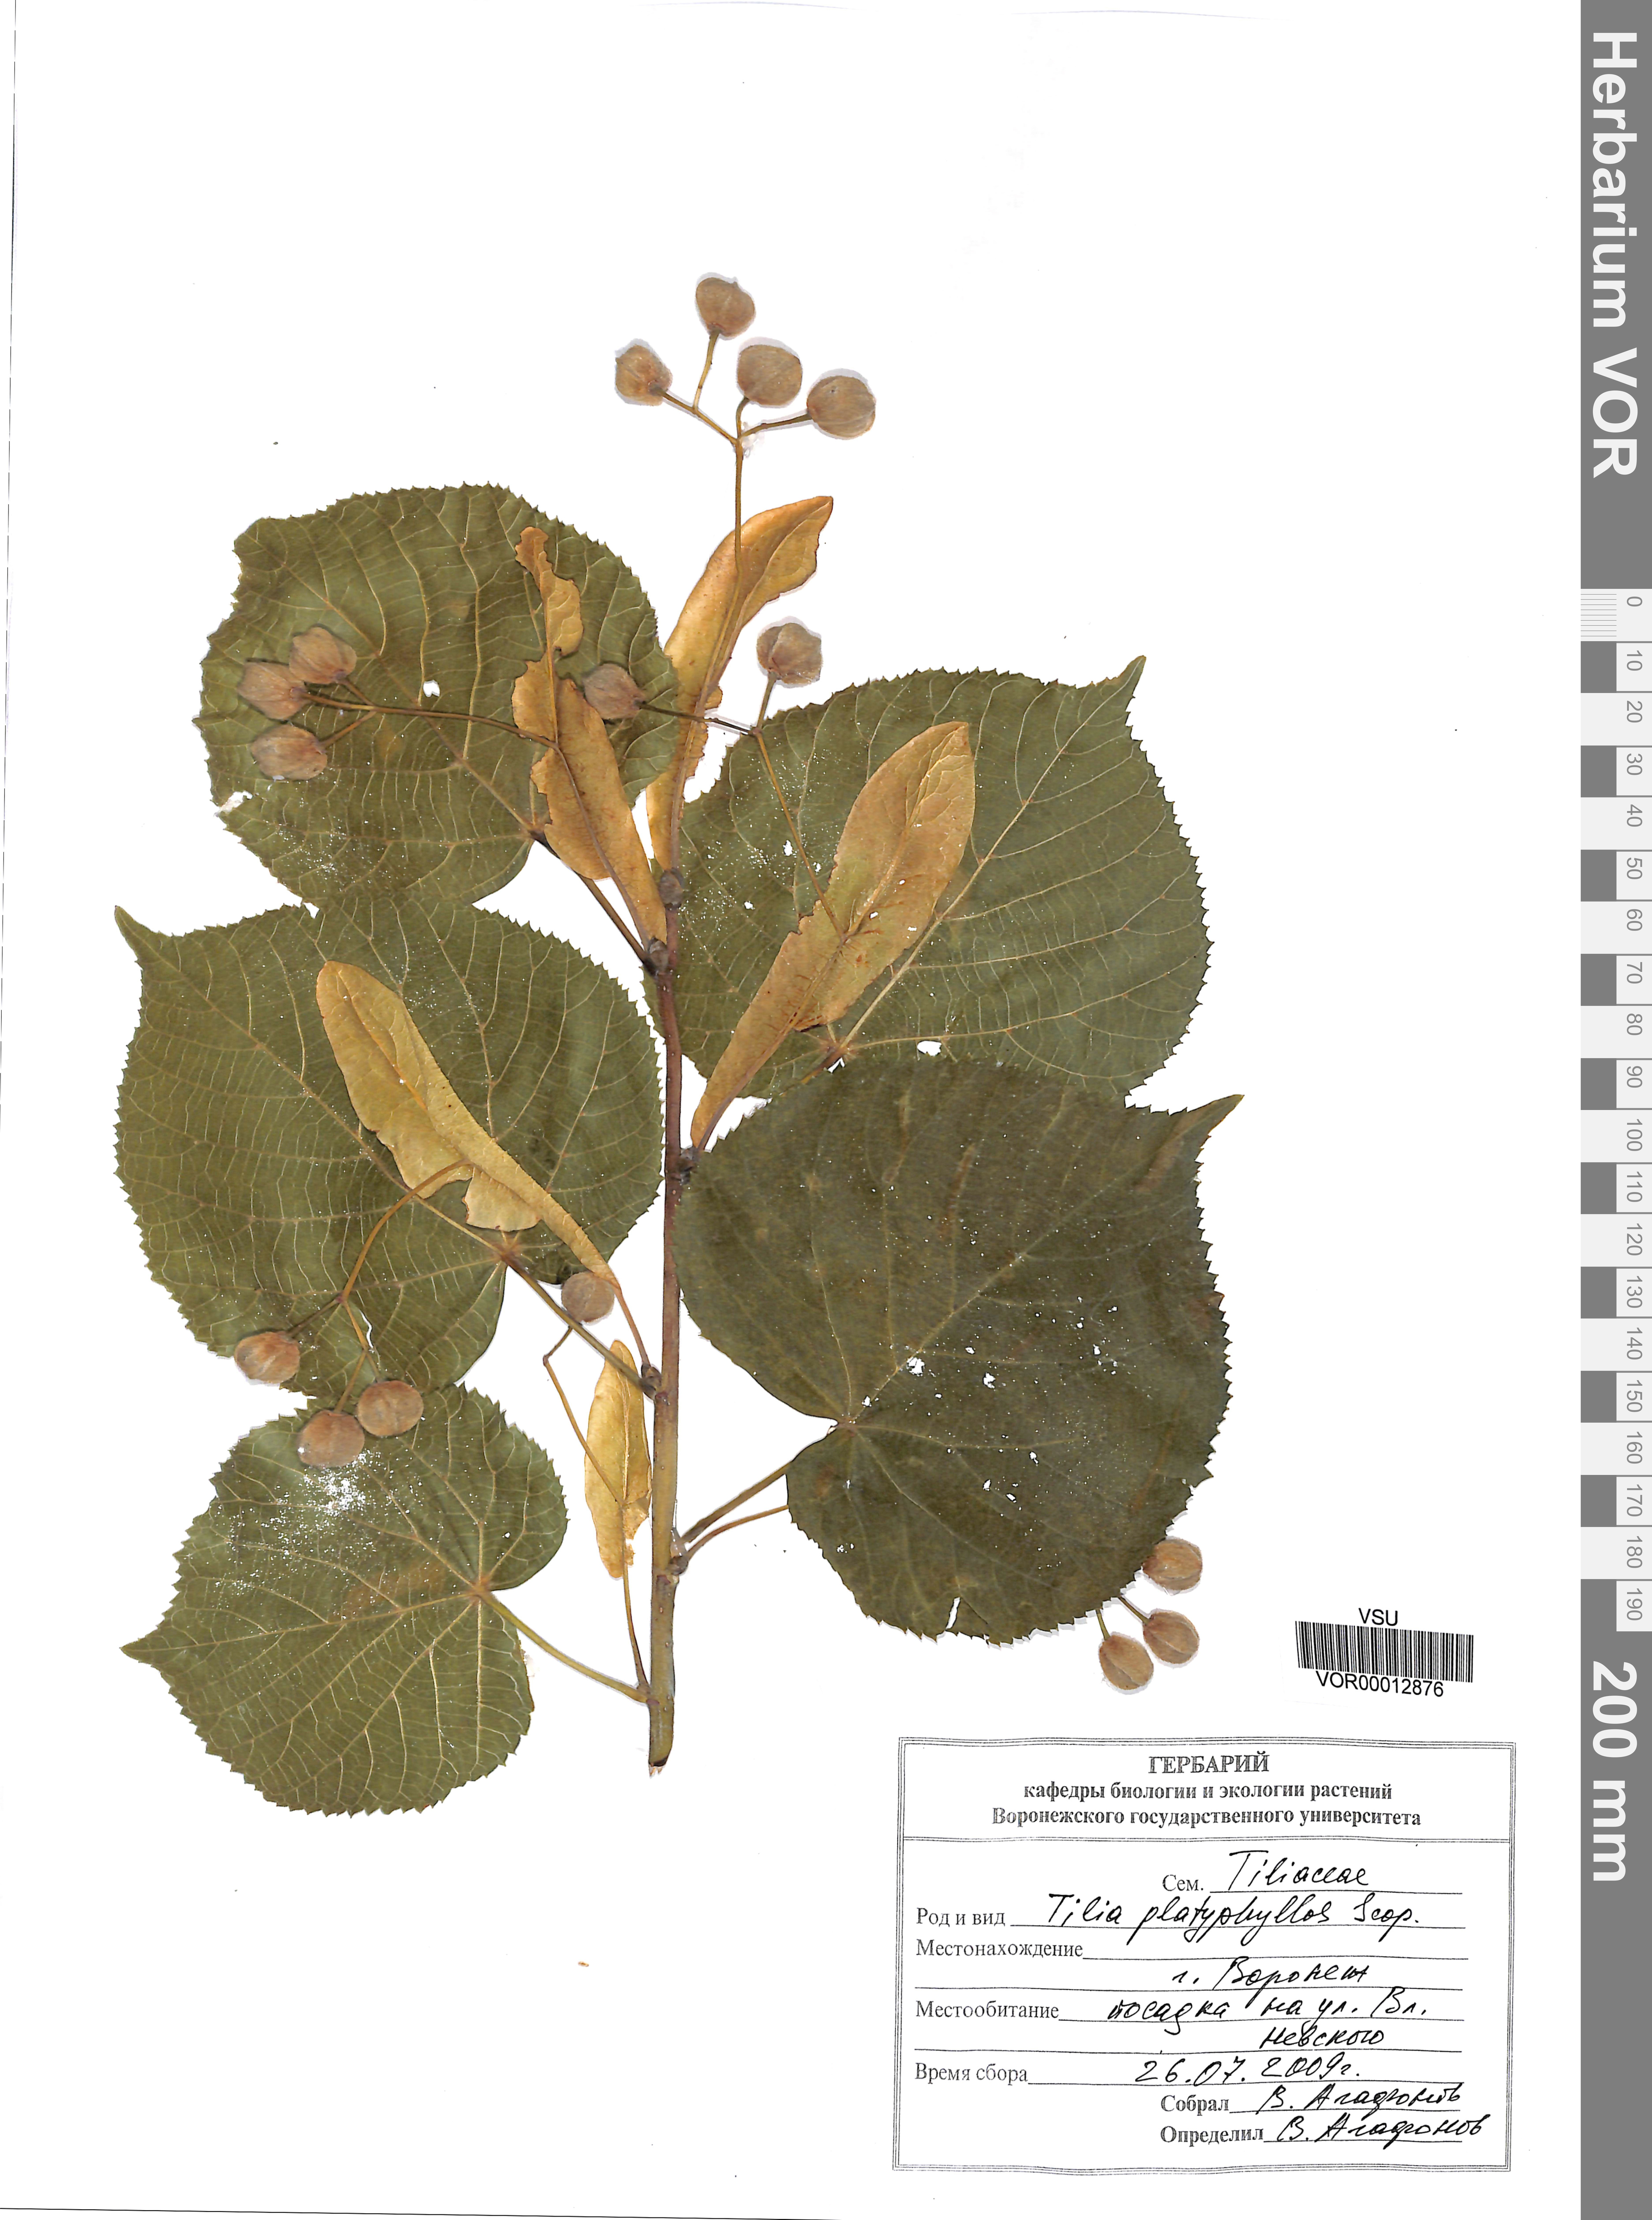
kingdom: Plantae
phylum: Tracheophyta
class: Magnoliopsida
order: Malvales
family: Malvaceae
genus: Tilia
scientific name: Tilia platyphyllos
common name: Large-leaved lime
